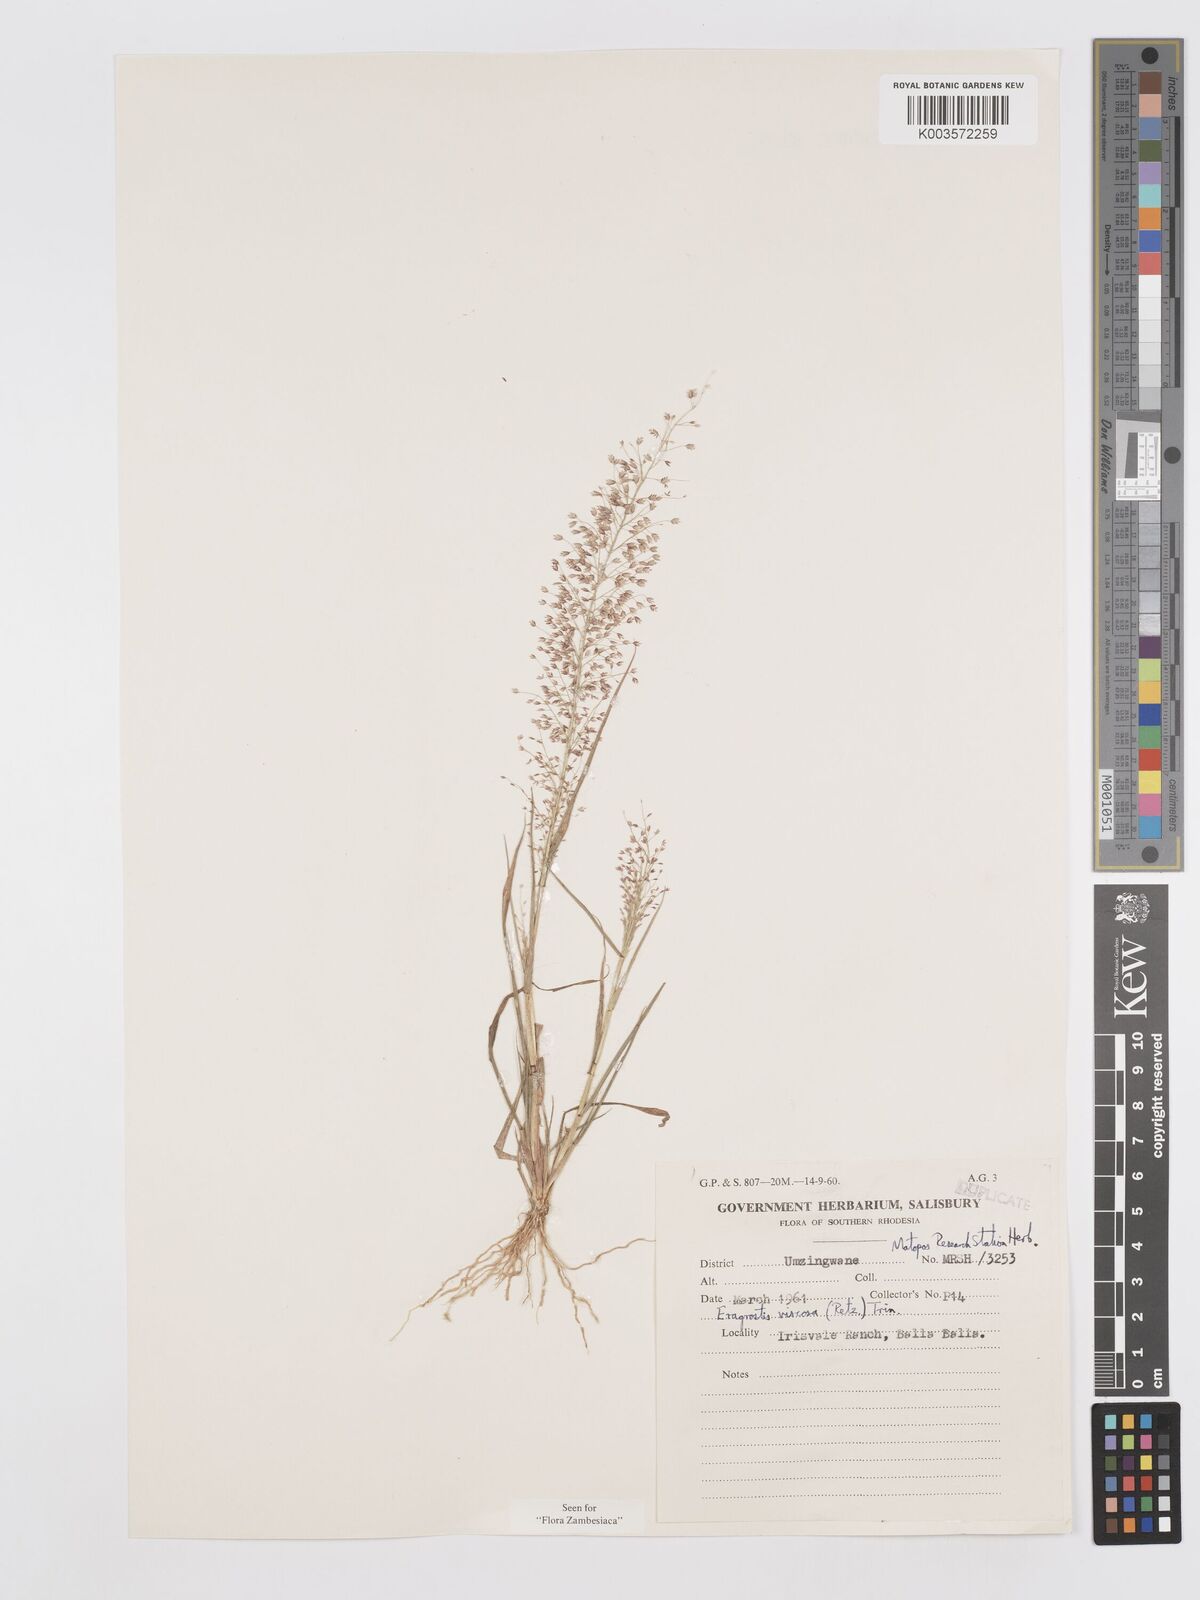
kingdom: Plantae
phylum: Tracheophyta
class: Liliopsida
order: Poales
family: Poaceae
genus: Eragrostis
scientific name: Eragrostis
